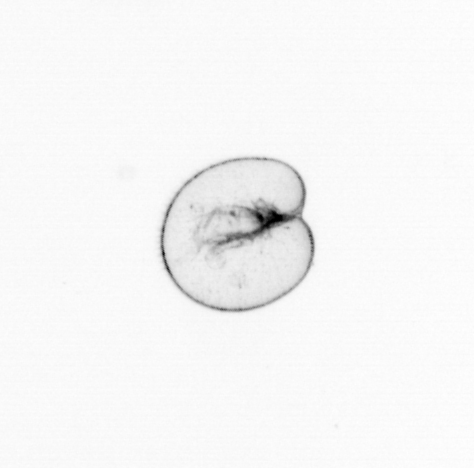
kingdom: Chromista
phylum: Myzozoa
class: Dinophyceae
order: Noctilucales
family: Noctilucaceae
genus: Noctiluca
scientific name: Noctiluca scintillans
